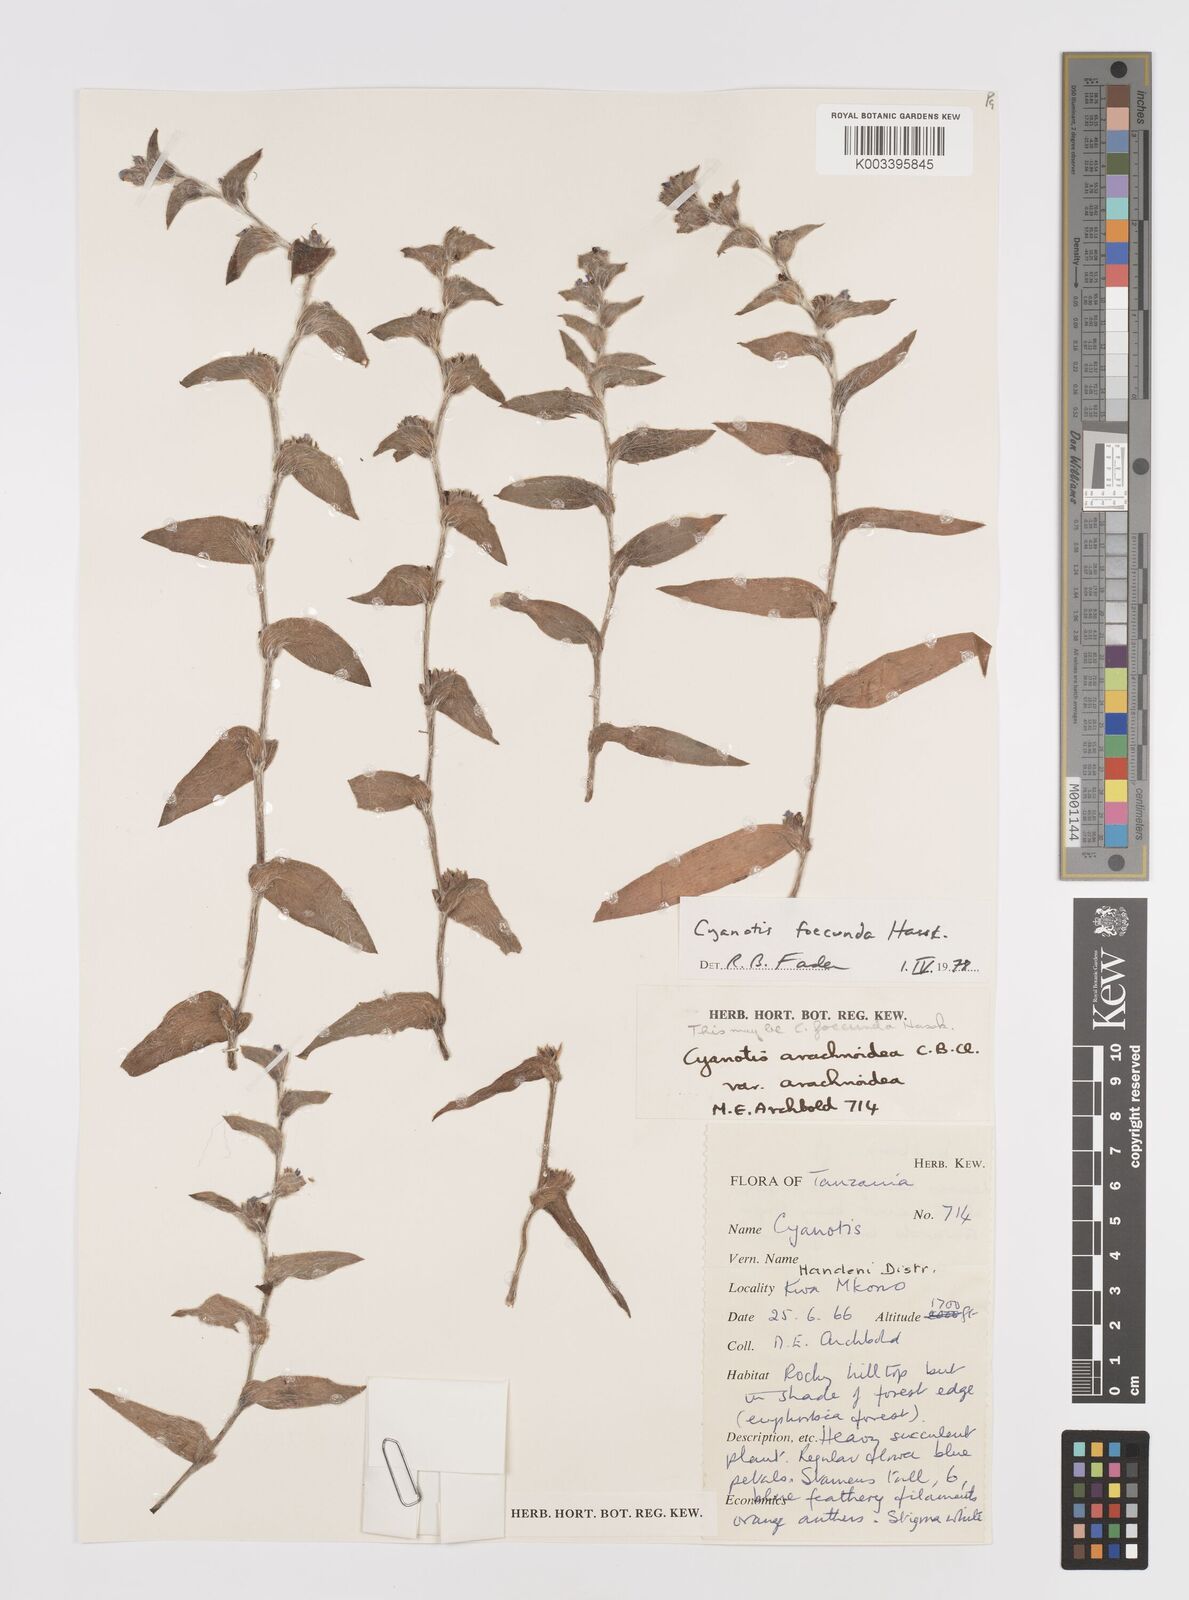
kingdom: Plantae
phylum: Tracheophyta
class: Liliopsida
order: Commelinales
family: Commelinaceae
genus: Cyanotis
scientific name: Cyanotis foecunda
